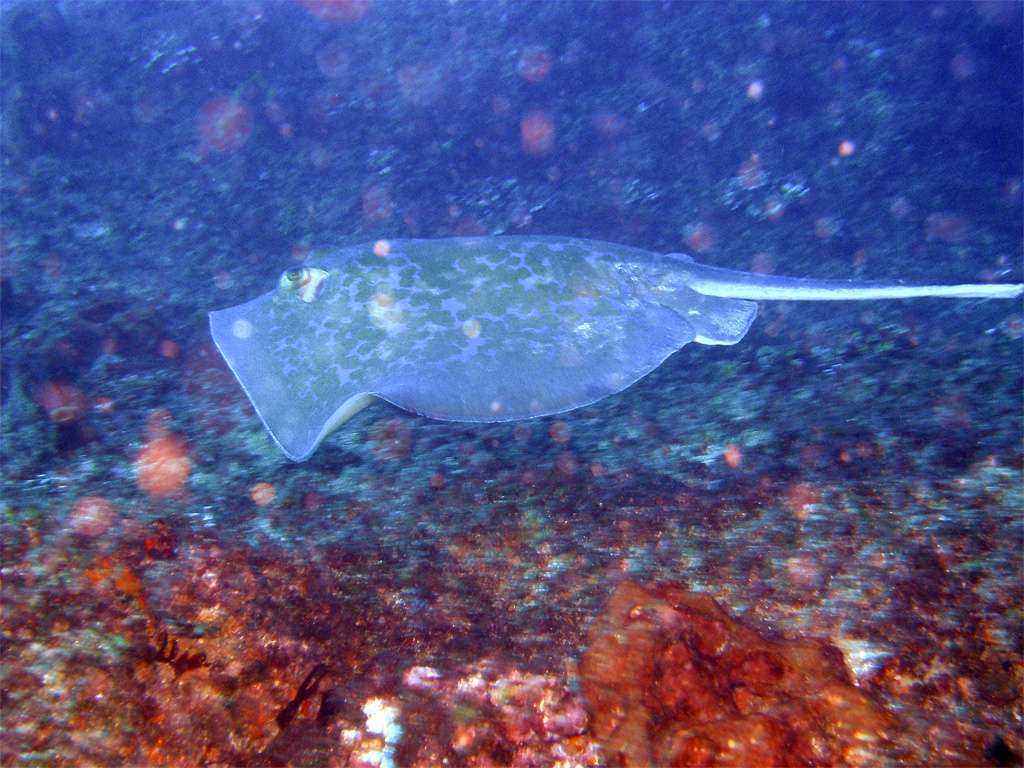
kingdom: Animalia
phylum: Chordata
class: Elasmobranchii
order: Myliobatiformes
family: Dasyatidae
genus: Dasyatis
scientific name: Dasyatis chrysonota
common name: Blue stingray
